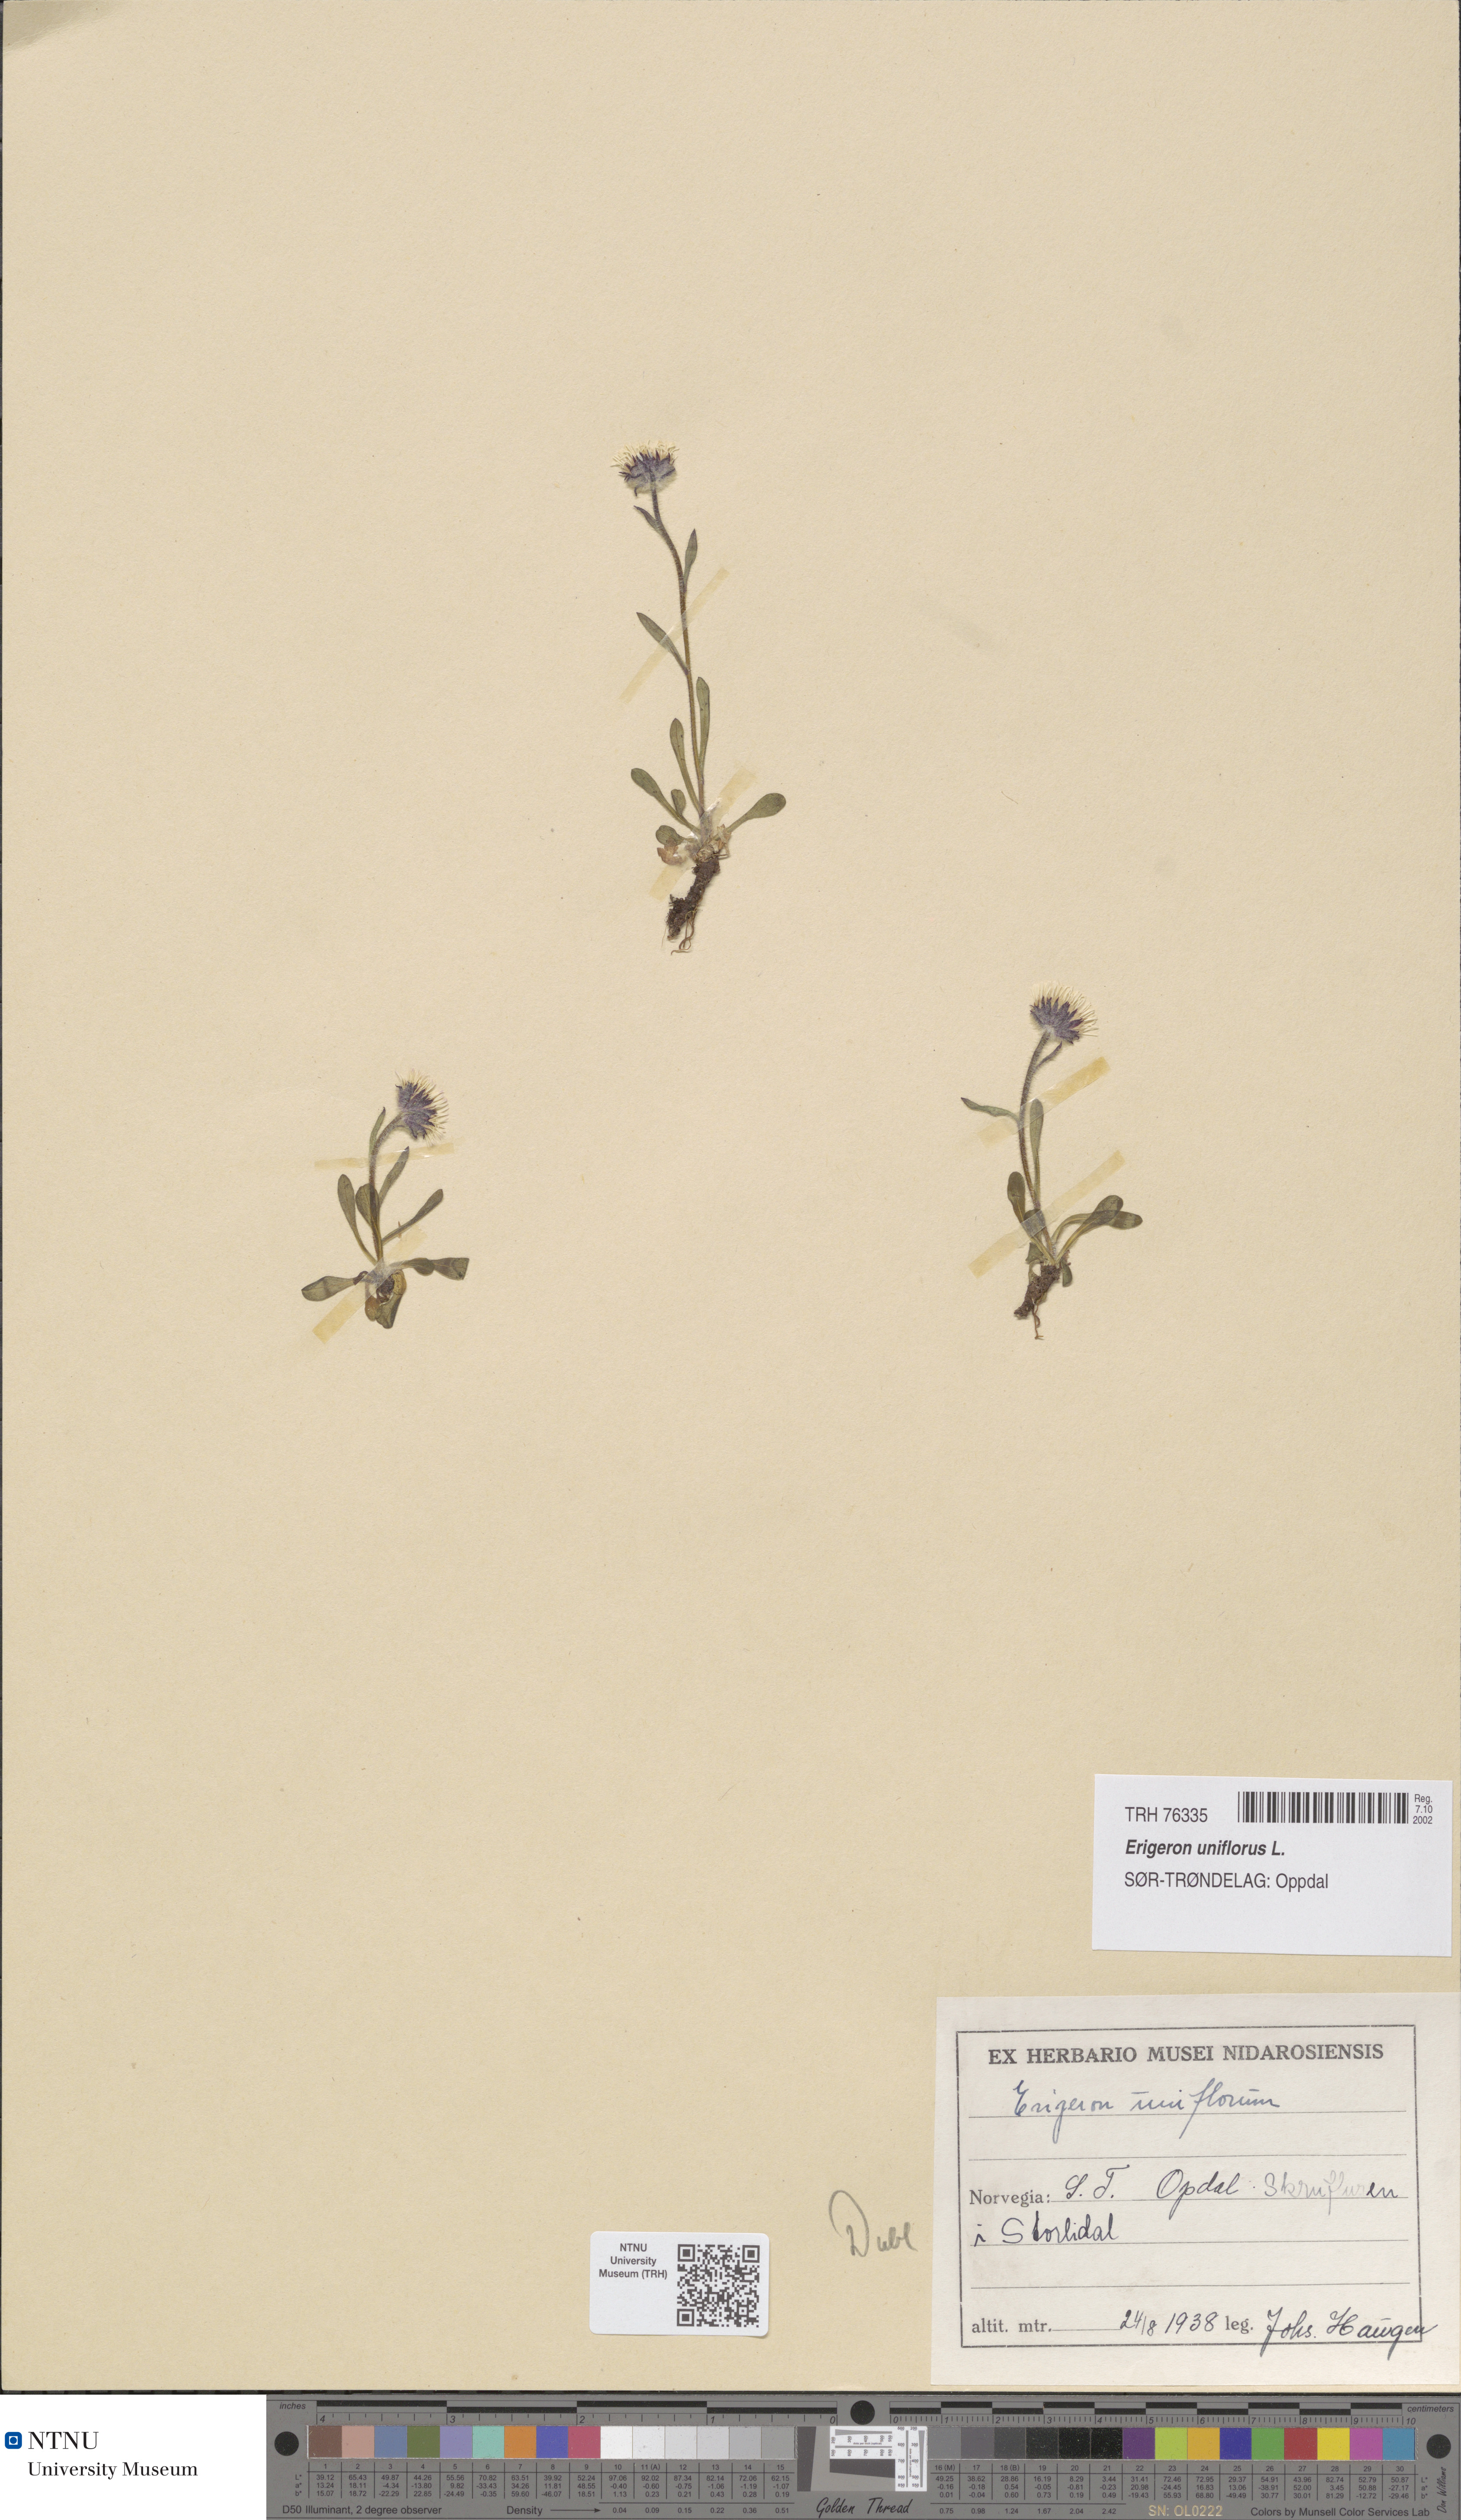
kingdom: Plantae
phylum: Tracheophyta
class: Magnoliopsida
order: Asterales
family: Asteraceae
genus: Erigeron
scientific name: Erigeron uniflorus
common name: Northern daisy
